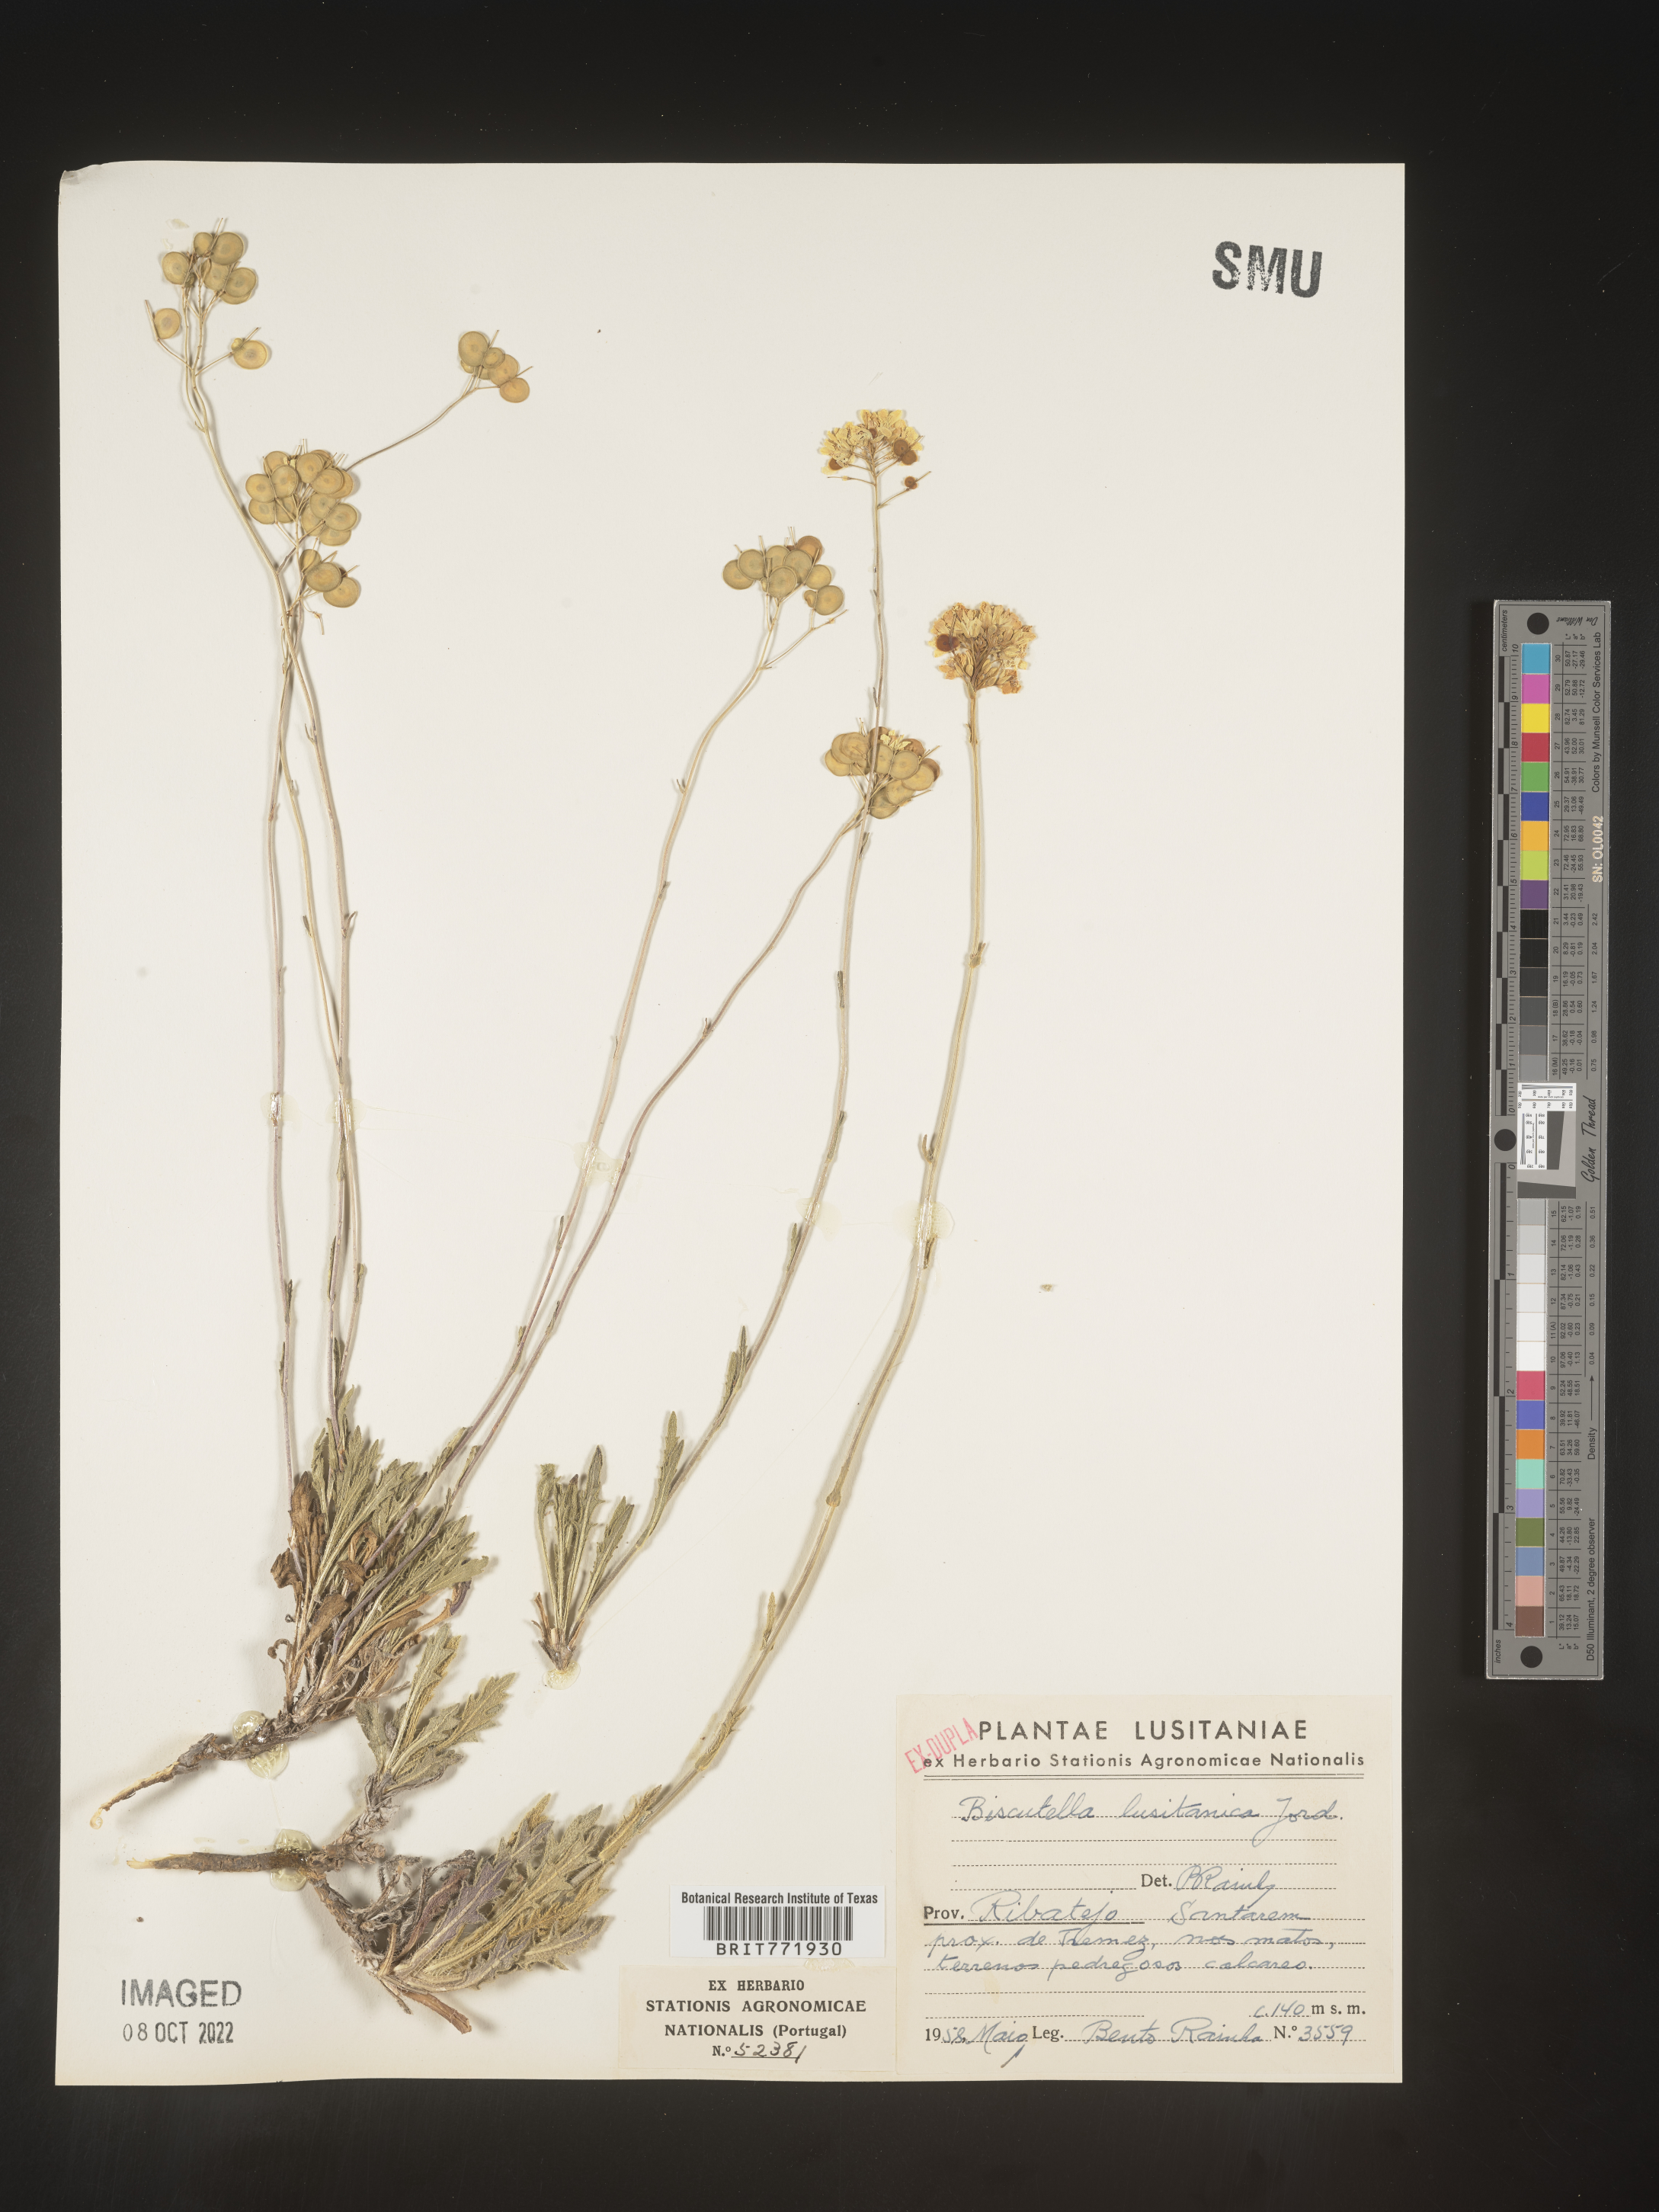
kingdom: Plantae
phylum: Tracheophyta
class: Magnoliopsida
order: Brassicales
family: Brassicaceae
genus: Biscutella
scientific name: Biscutella
